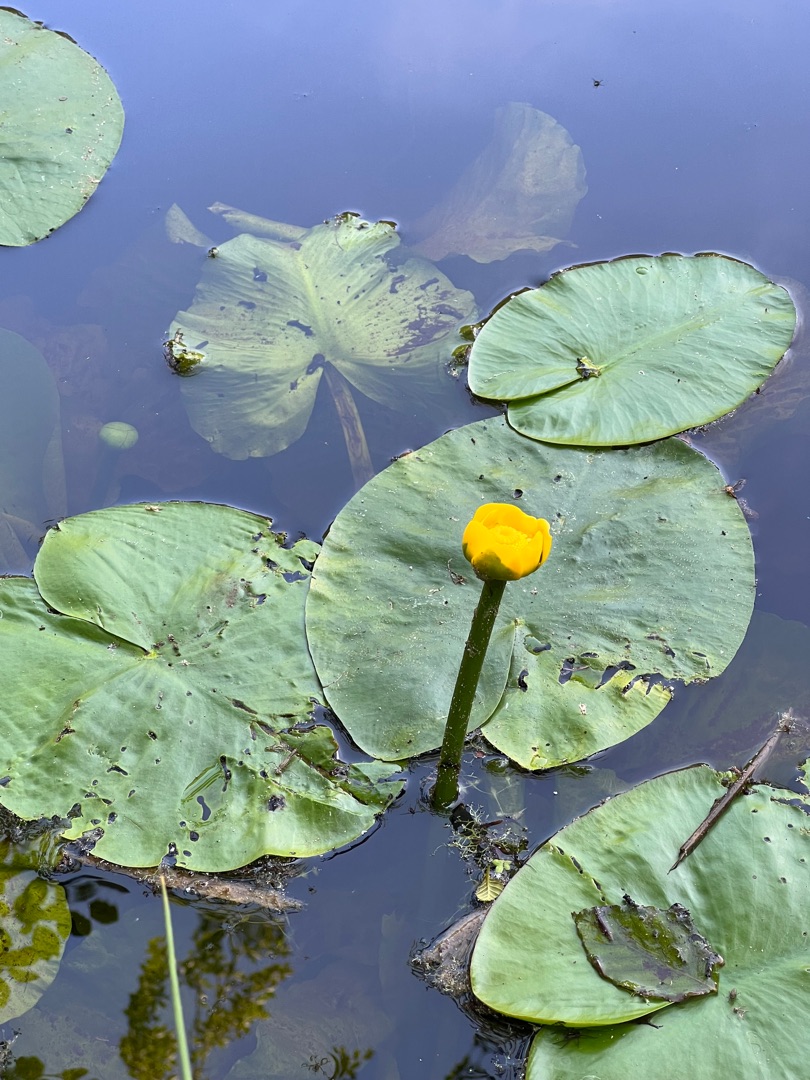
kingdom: Plantae
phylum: Tracheophyta
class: Magnoliopsida
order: Nymphaeales
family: Nymphaeaceae
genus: Nuphar
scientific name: Nuphar lutea
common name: Gul åkande
